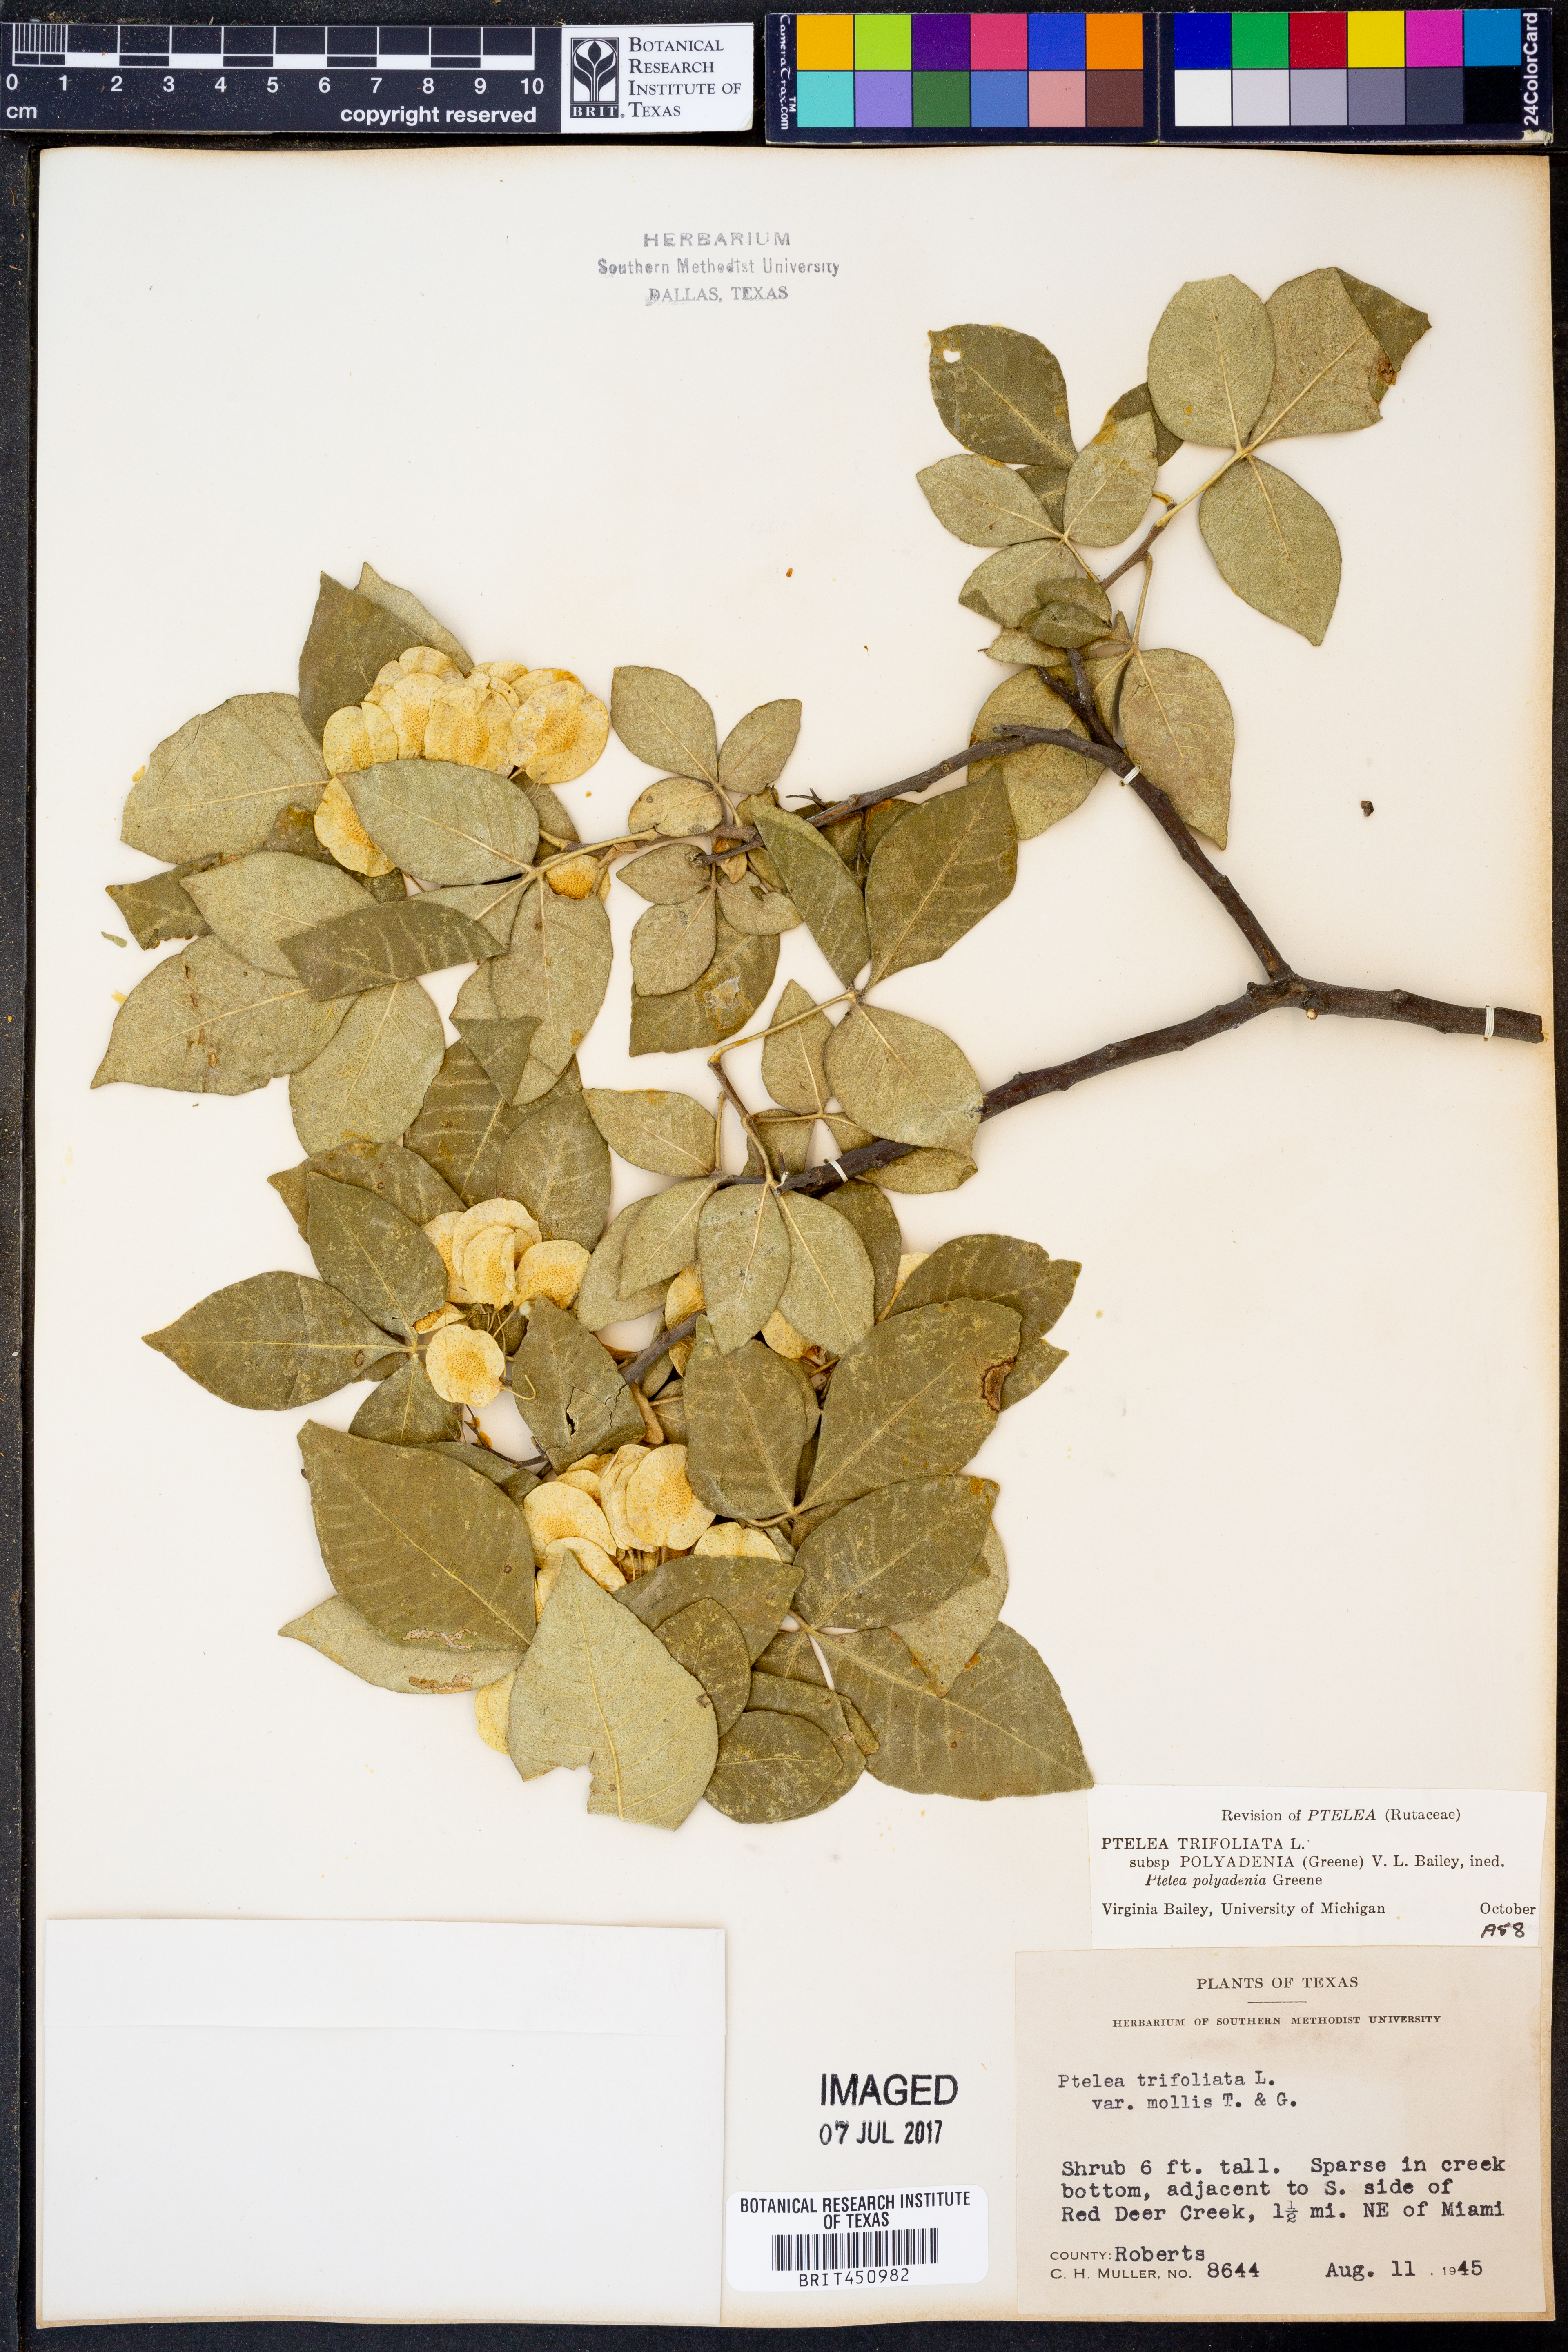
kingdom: Plantae
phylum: Tracheophyta
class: Magnoliopsida
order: Sapindales
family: Rutaceae
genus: Ptelea
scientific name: Ptelea trifoliata
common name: Common hop-tree
